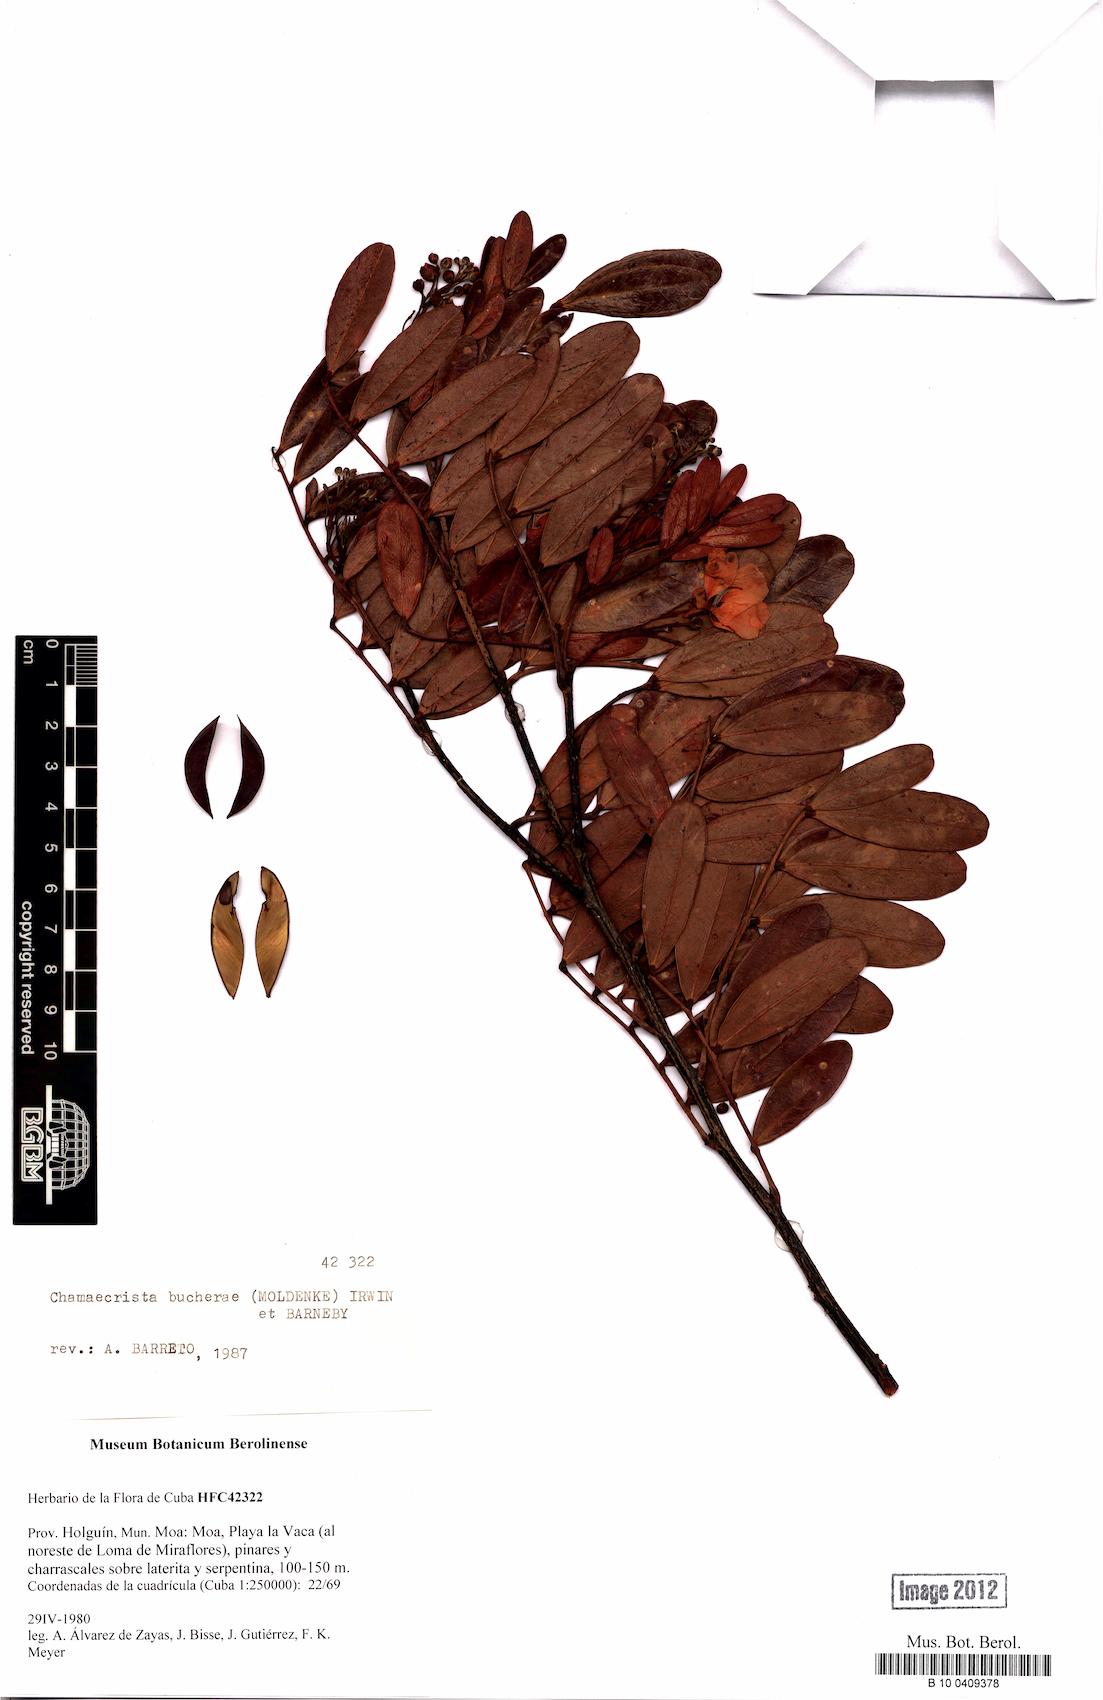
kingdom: Plantae
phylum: Tracheophyta
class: Magnoliopsida
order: Fabales
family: Fabaceae
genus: Chamaecrista
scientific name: Chamaecrista bucherae
